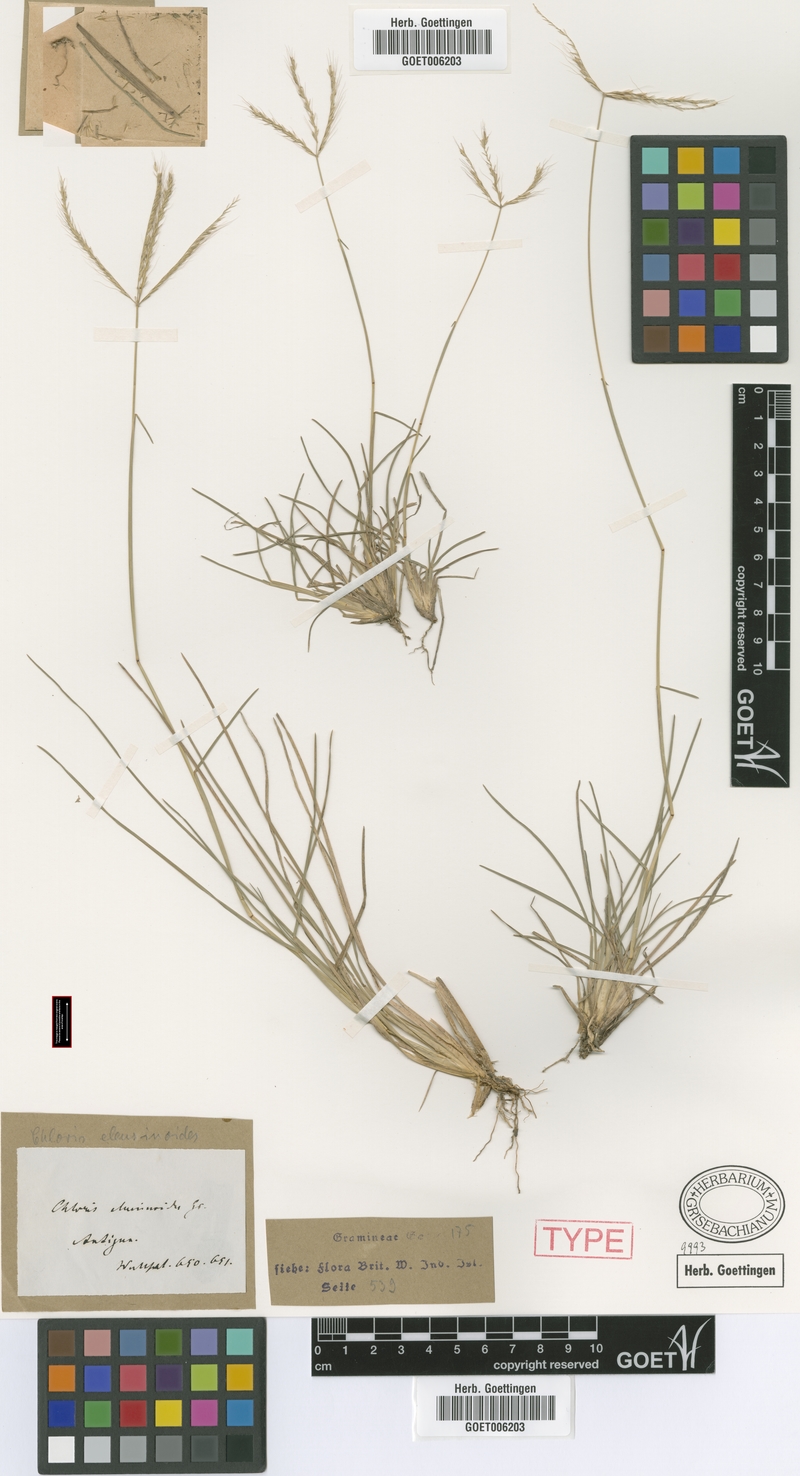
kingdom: Plantae
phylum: Tracheophyta
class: Liliopsida
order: Poales
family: Poaceae
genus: Chloris
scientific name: Chloris sagraeana
